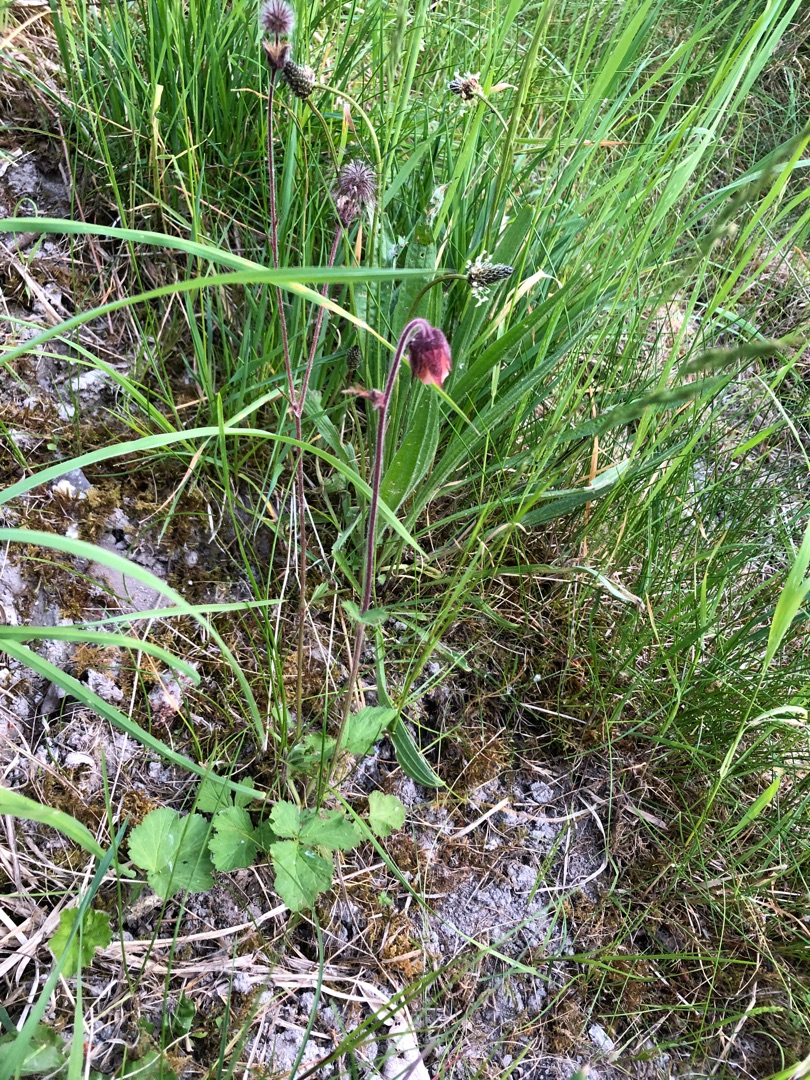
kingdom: Plantae
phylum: Tracheophyta
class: Magnoliopsida
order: Rosales
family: Rosaceae
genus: Geum
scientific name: Geum rivale
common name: Eng-nellikerod
